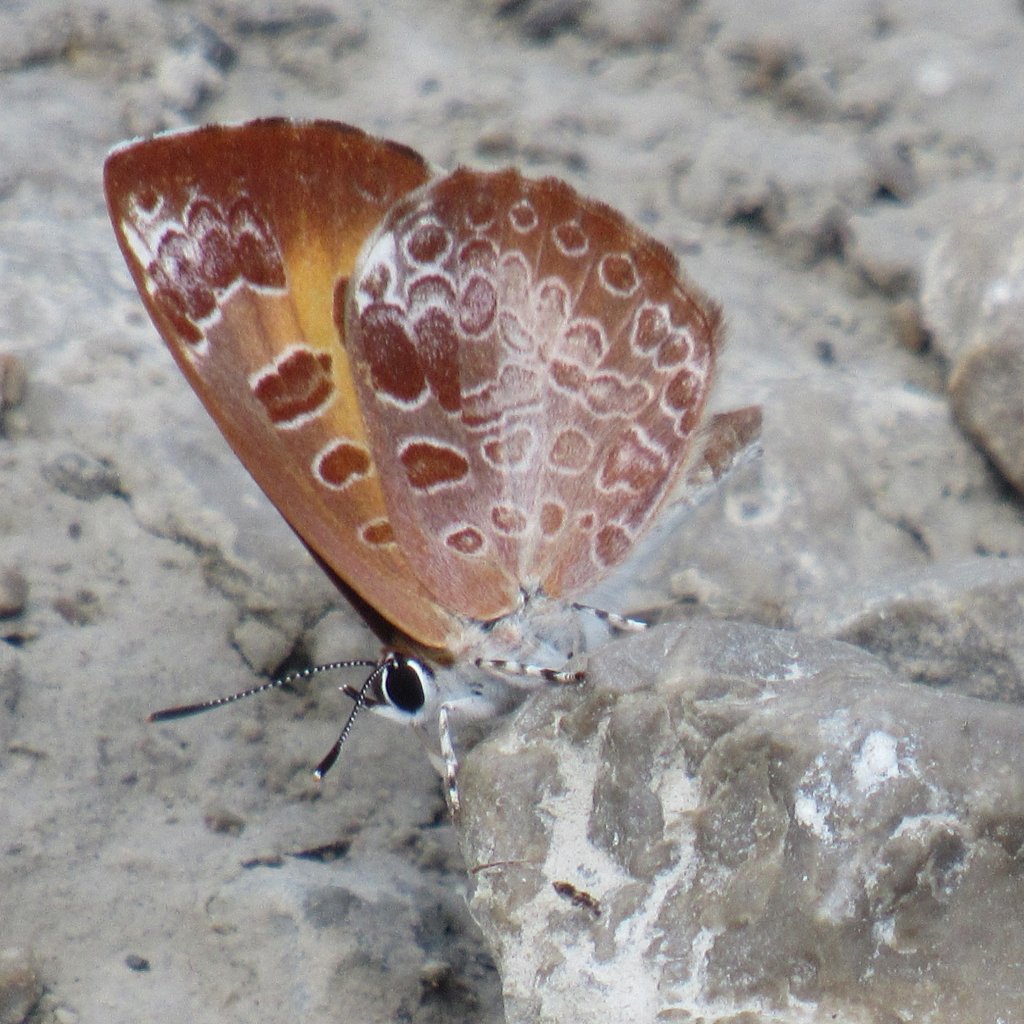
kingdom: Animalia
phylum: Arthropoda
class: Insecta
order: Lepidoptera
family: Lycaenidae
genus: Feniseca
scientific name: Feniseca tarquinius
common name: Harvester
